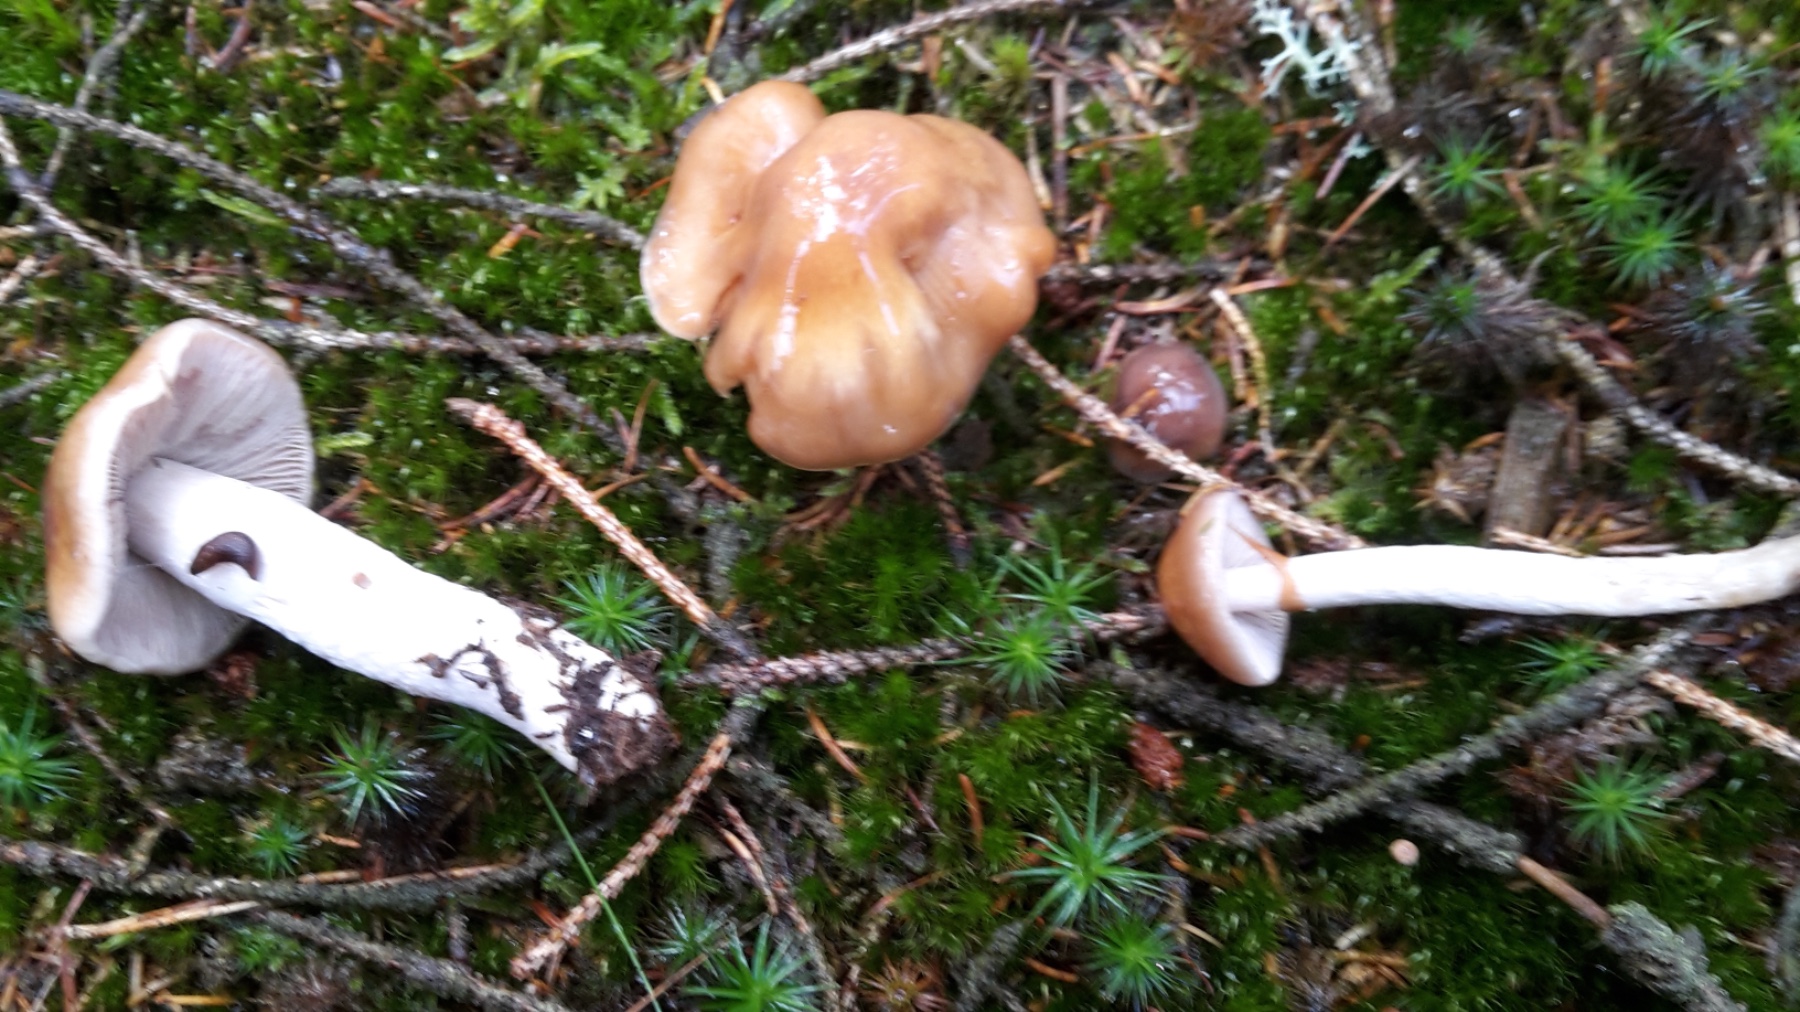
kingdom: Fungi
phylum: Basidiomycota
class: Agaricomycetes
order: Agaricales
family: Cortinariaceae
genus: Cortinarius
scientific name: Cortinarius mucifluus
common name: rynket slørhat
